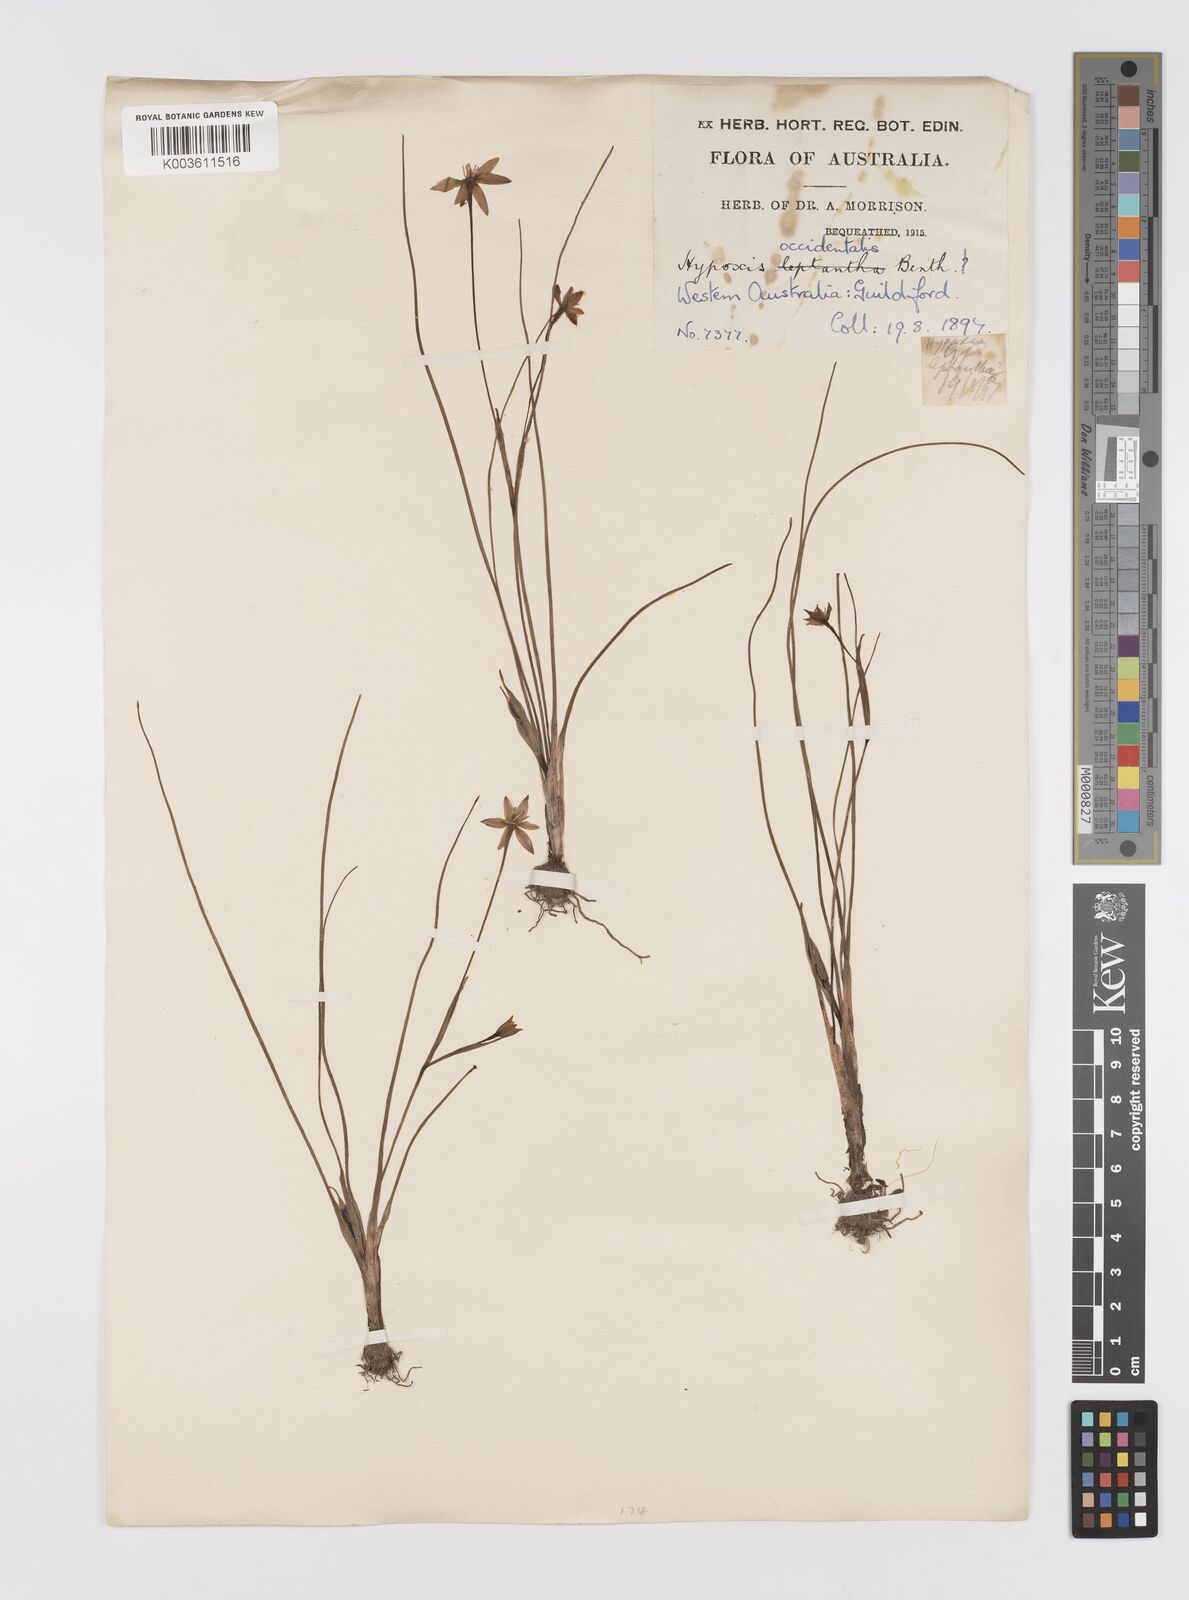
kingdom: Plantae
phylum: Tracheophyta
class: Liliopsida
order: Asparagales
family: Hypoxidaceae
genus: Pauridia
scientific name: Pauridia occidentalis
